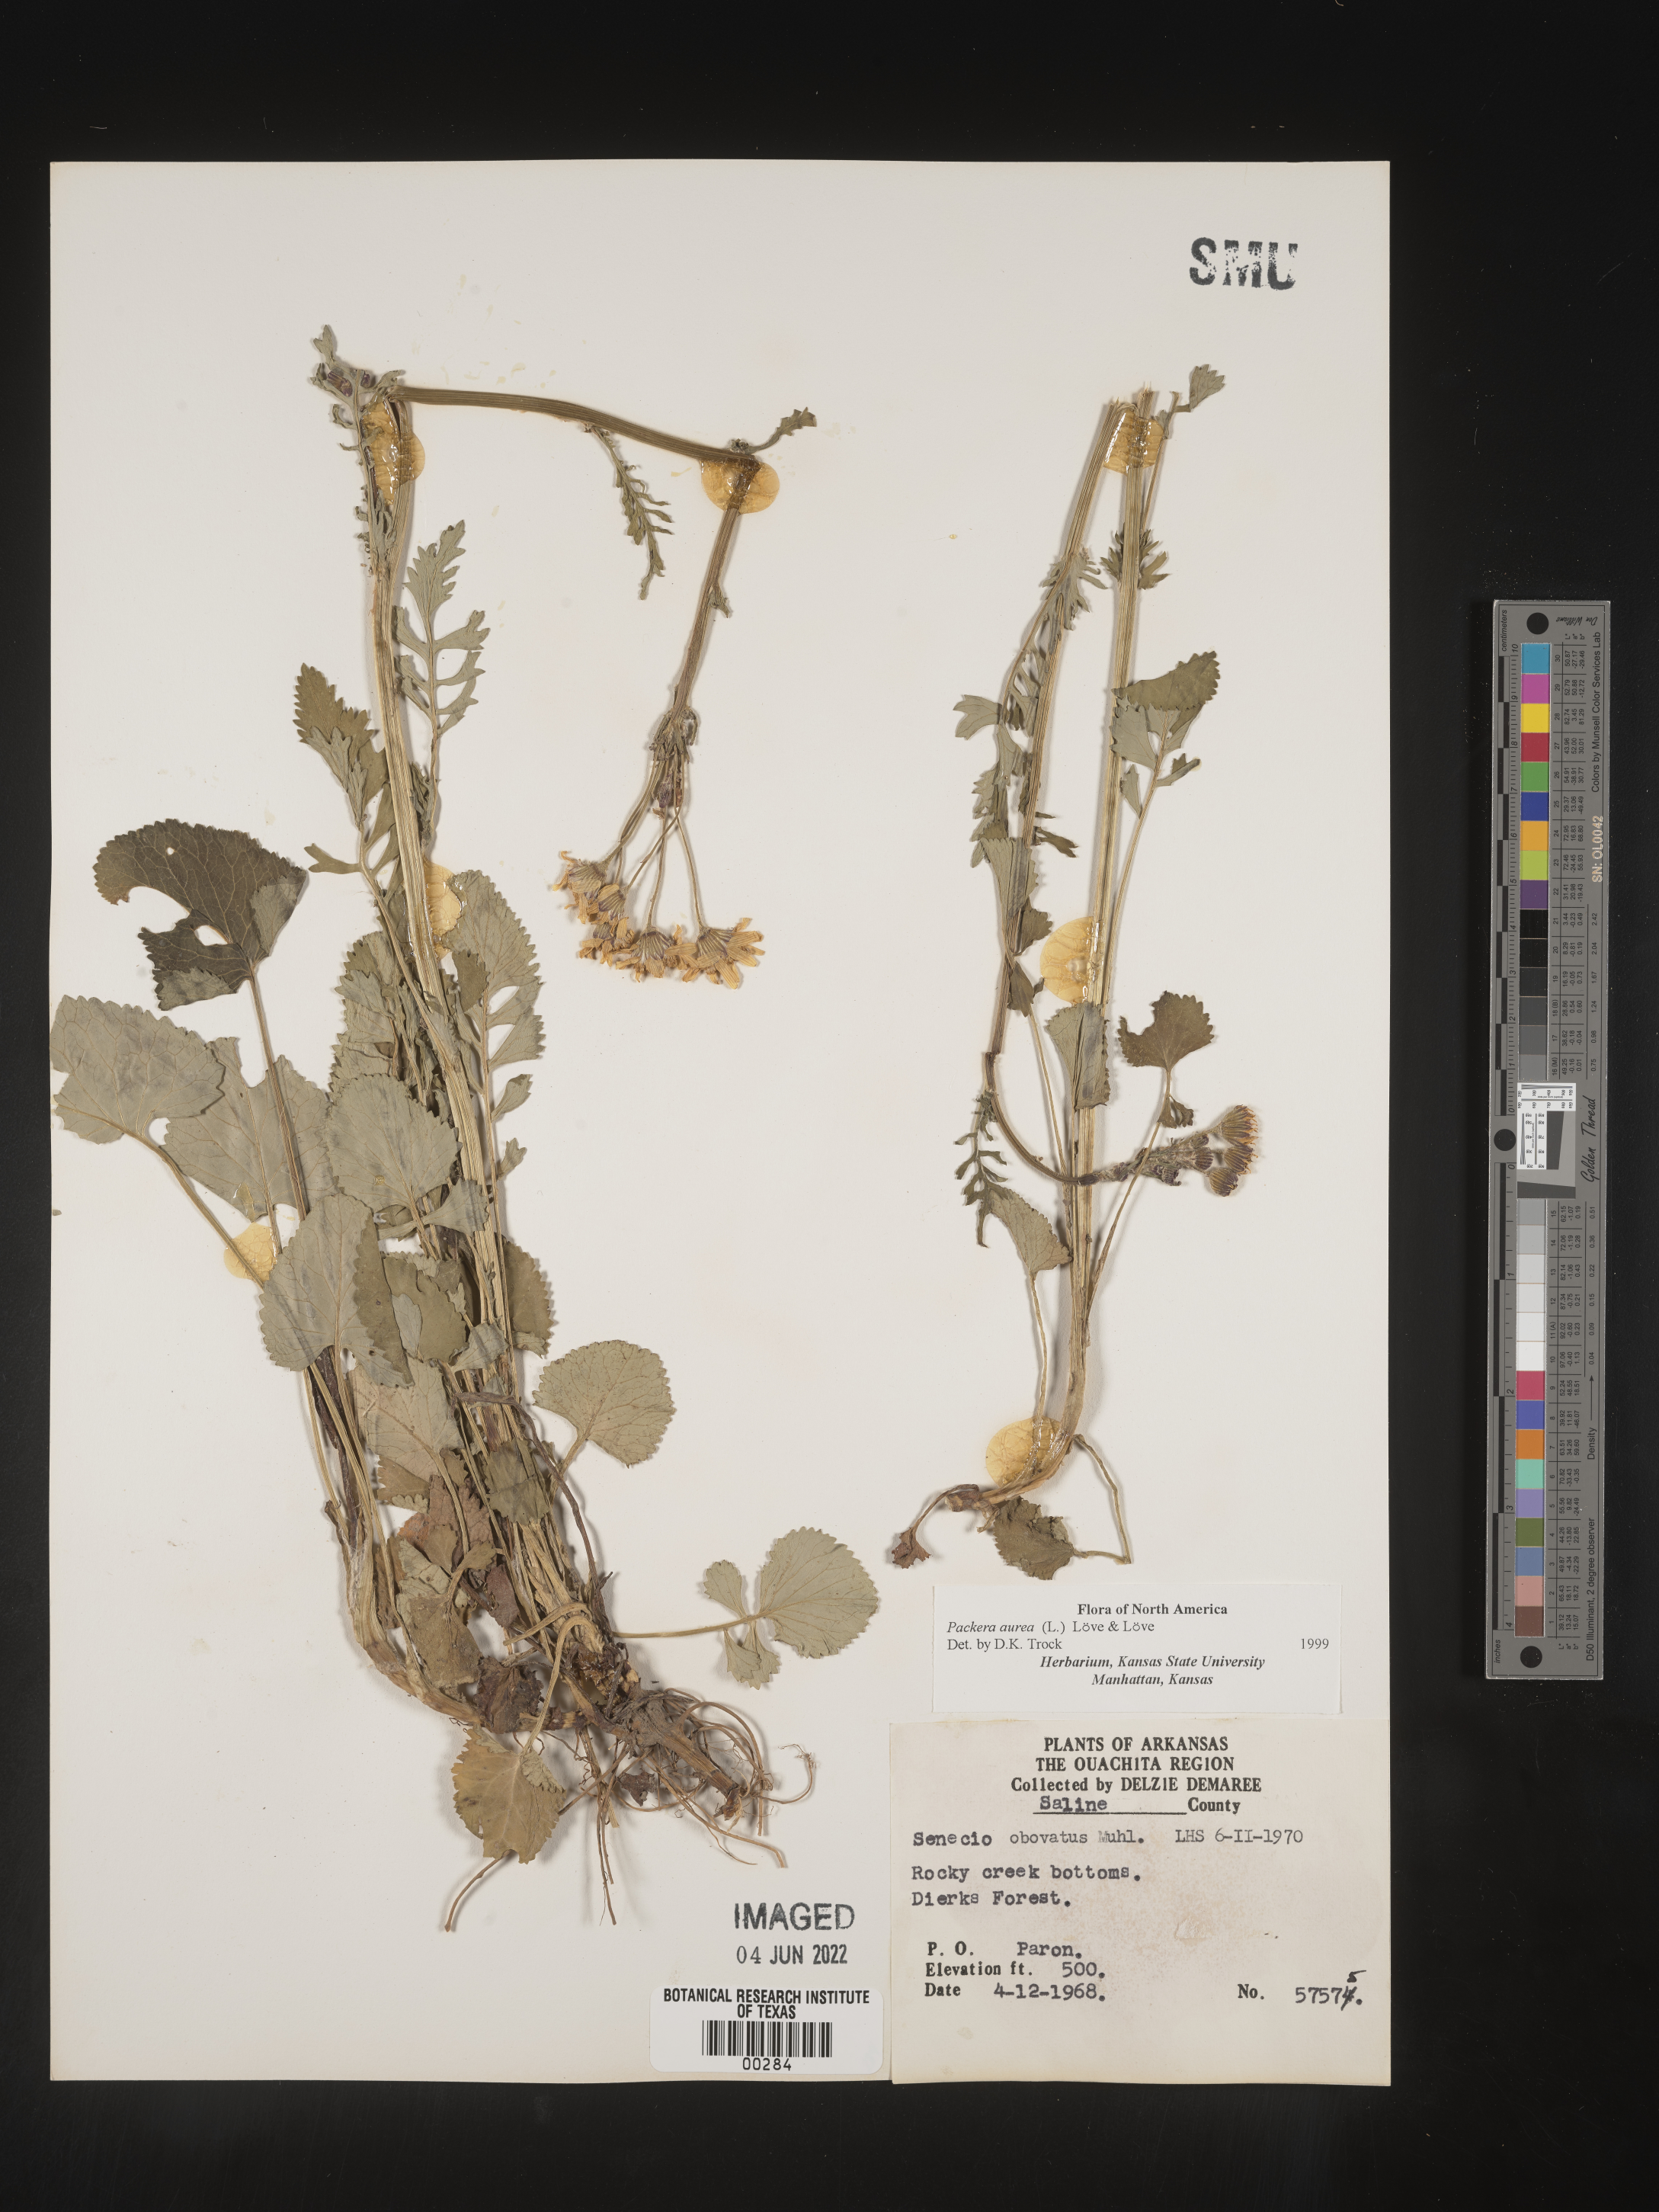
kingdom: Plantae
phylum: Tracheophyta
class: Magnoliopsida
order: Asterales
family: Asteraceae
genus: Packera
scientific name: Packera aurea
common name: Golden groundsel
